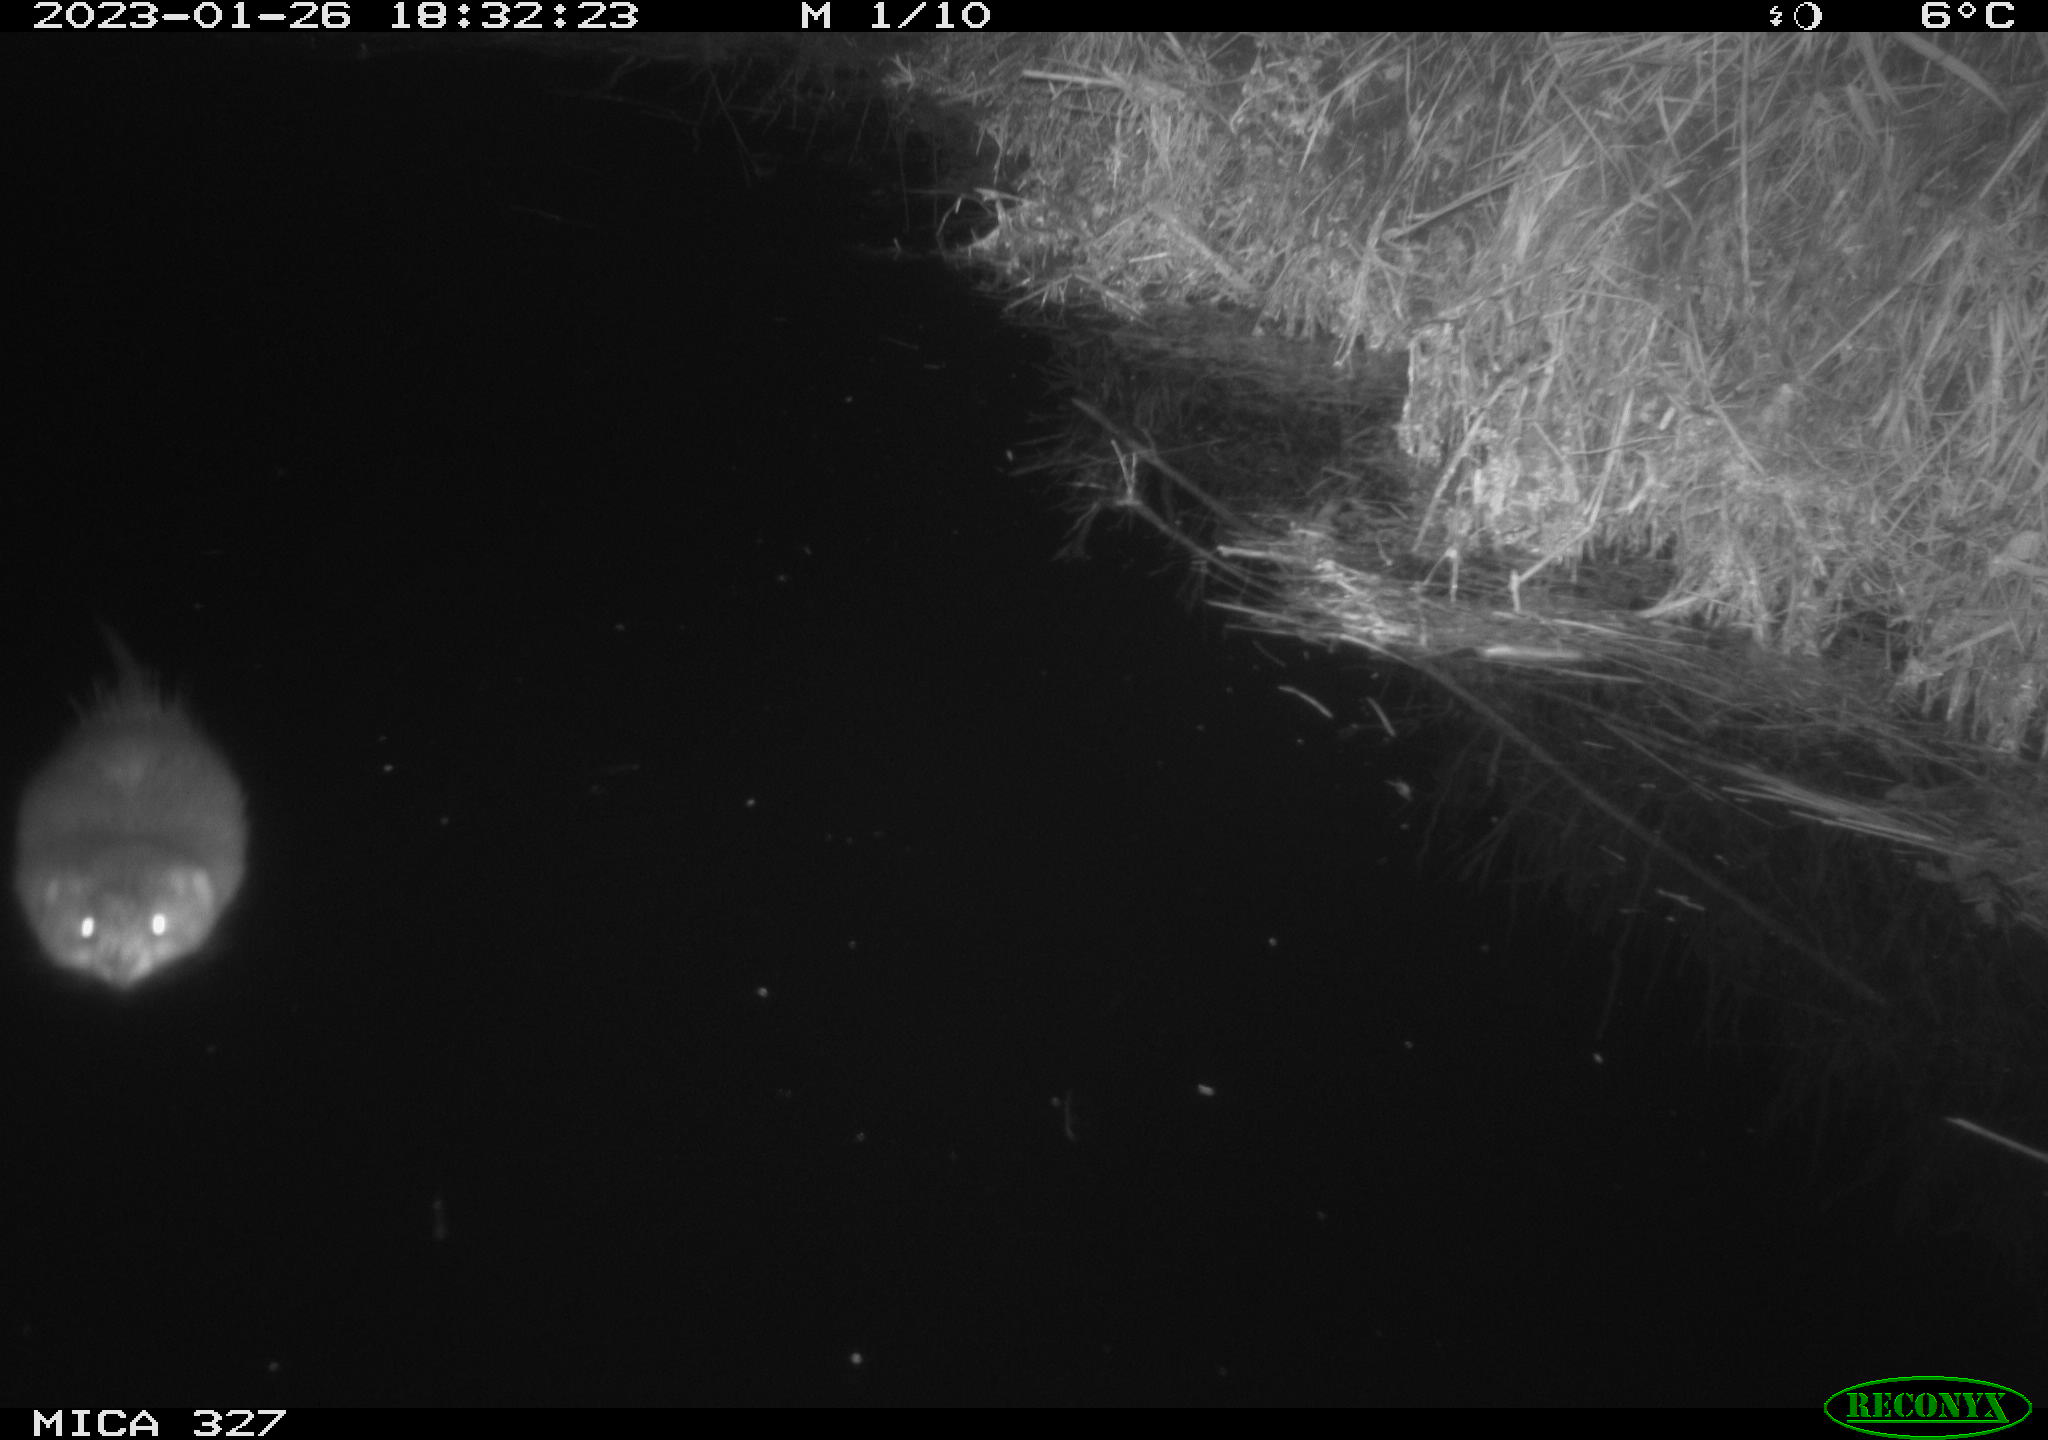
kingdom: Animalia
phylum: Chordata
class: Mammalia
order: Rodentia
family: Cricetidae
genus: Ondatra
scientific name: Ondatra zibethicus
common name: Muskrat
